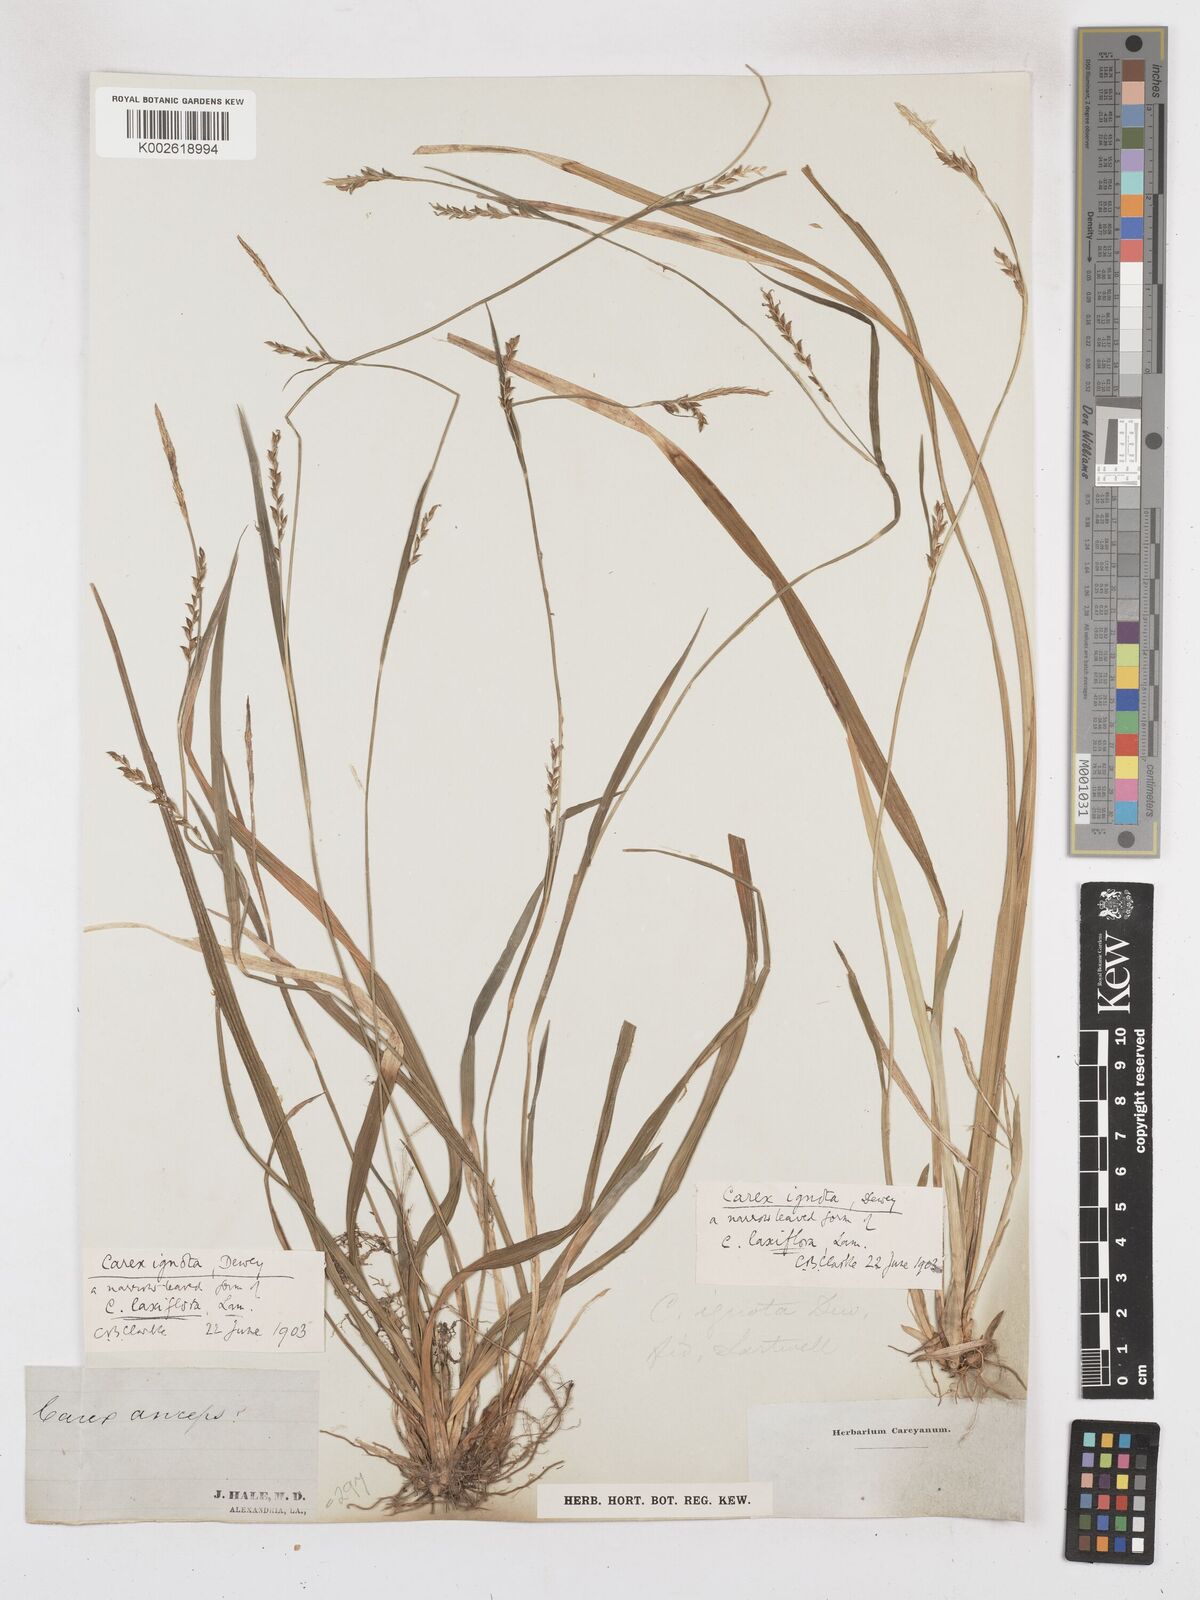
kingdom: Plantae
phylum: Tracheophyta
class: Liliopsida
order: Poales
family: Cyperaceae
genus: Carex
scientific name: Carex striatula
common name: Lined sedge
